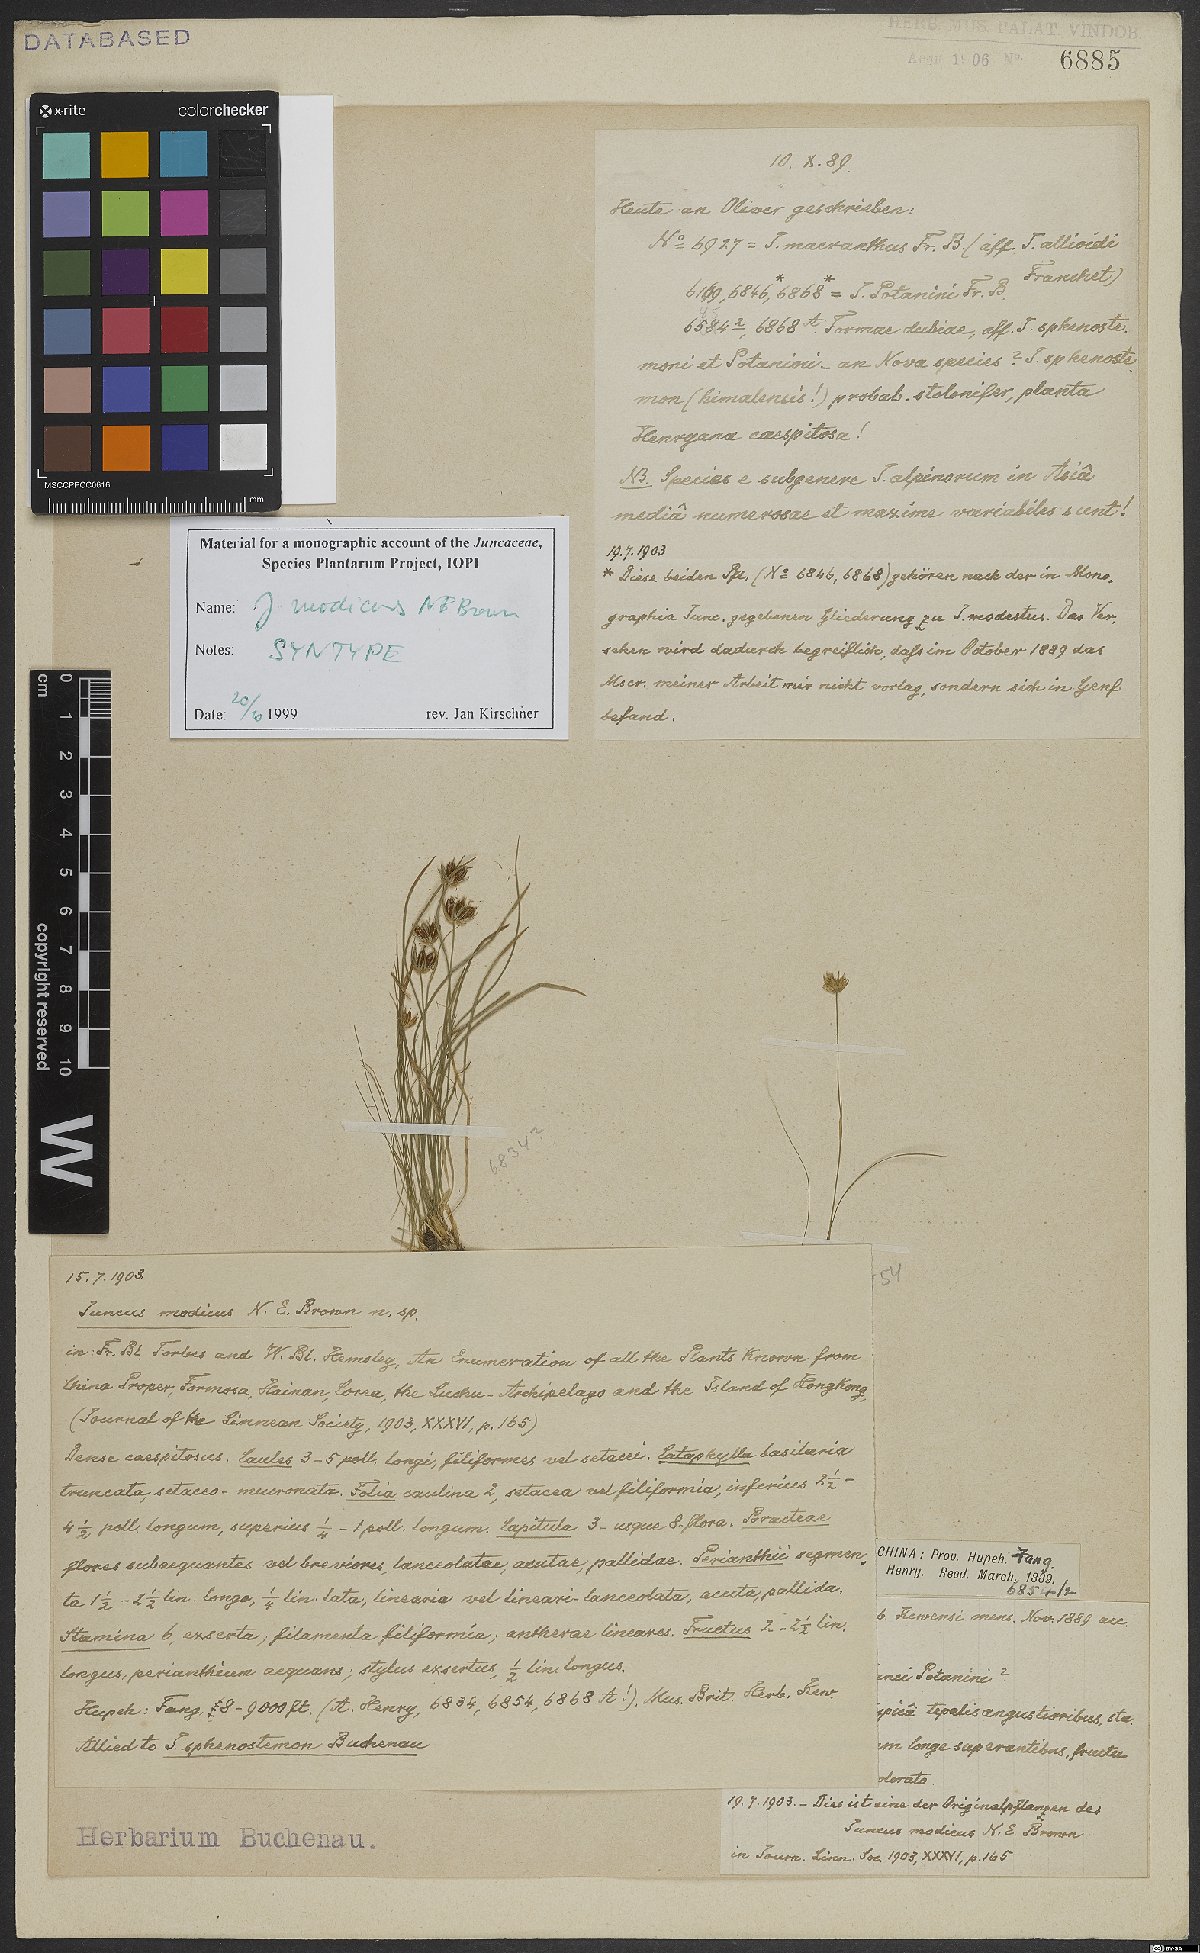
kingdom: Plantae
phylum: Tracheophyta
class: Liliopsida
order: Poales
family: Juncaceae
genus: Juncus
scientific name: Juncus modicus
